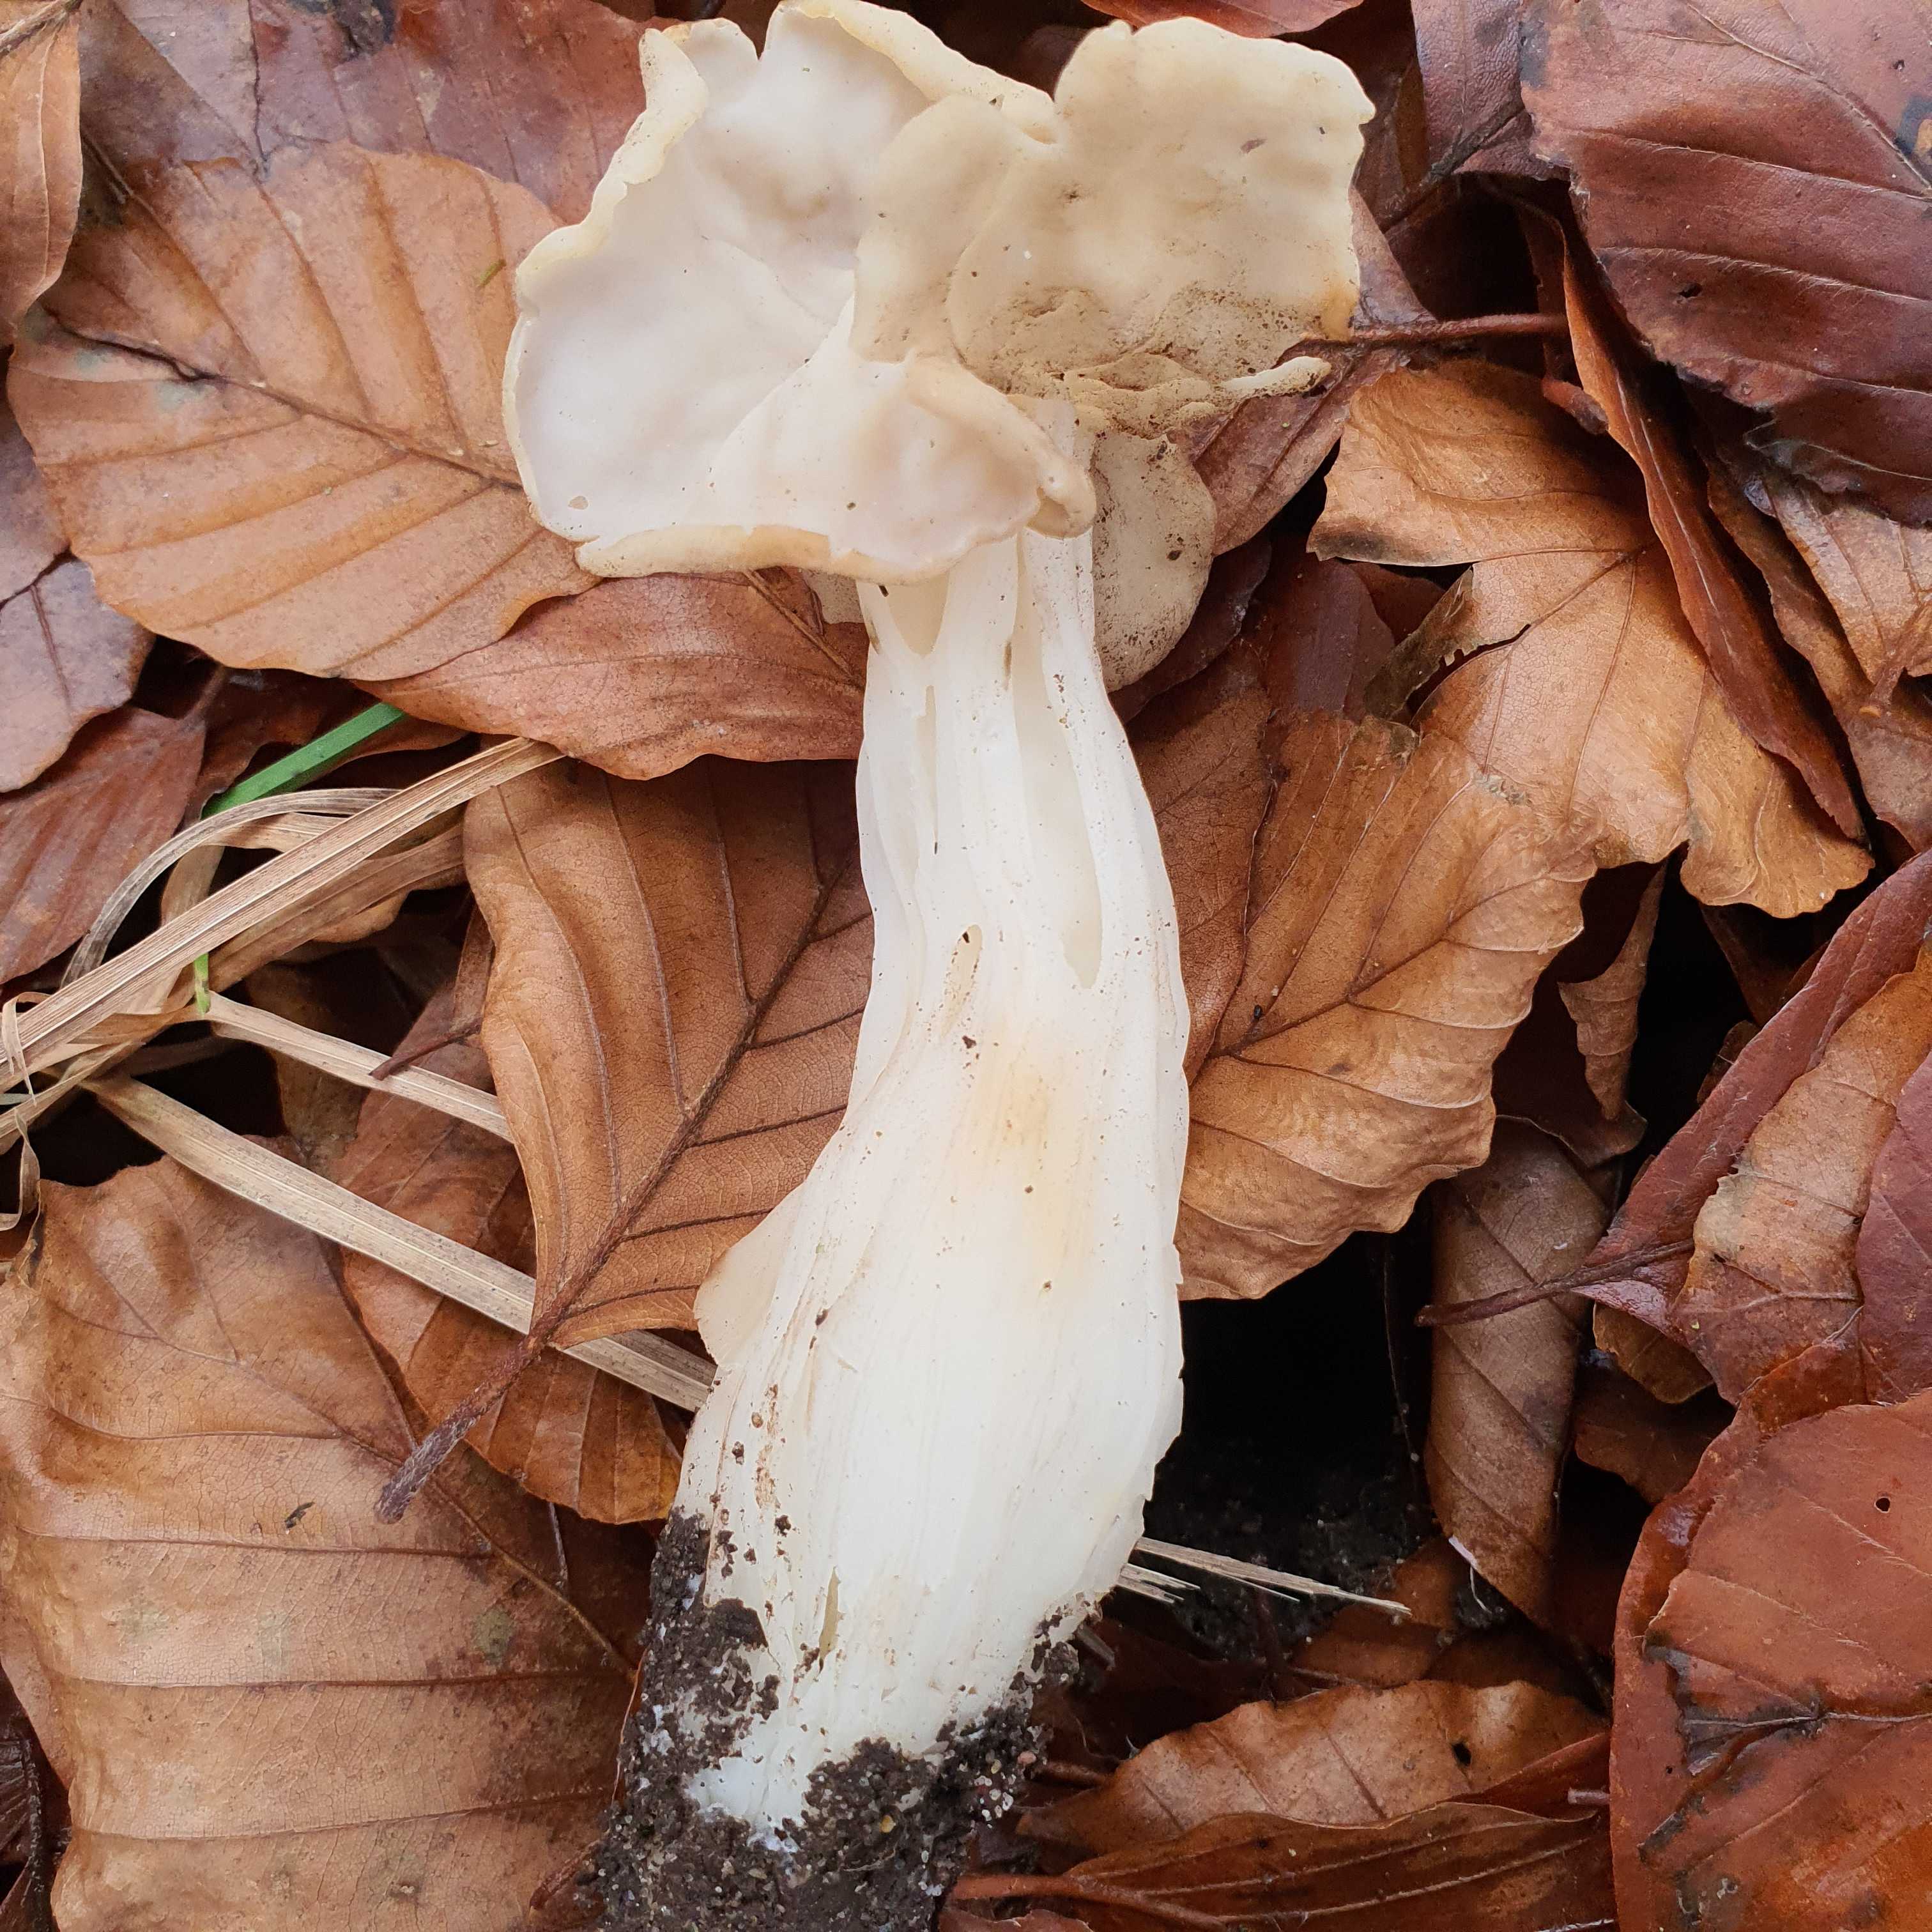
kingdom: Fungi
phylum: Ascomycota
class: Pezizomycetes
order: Pezizales
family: Helvellaceae
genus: Helvella
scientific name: Helvella crispa
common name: kruset foldhat
